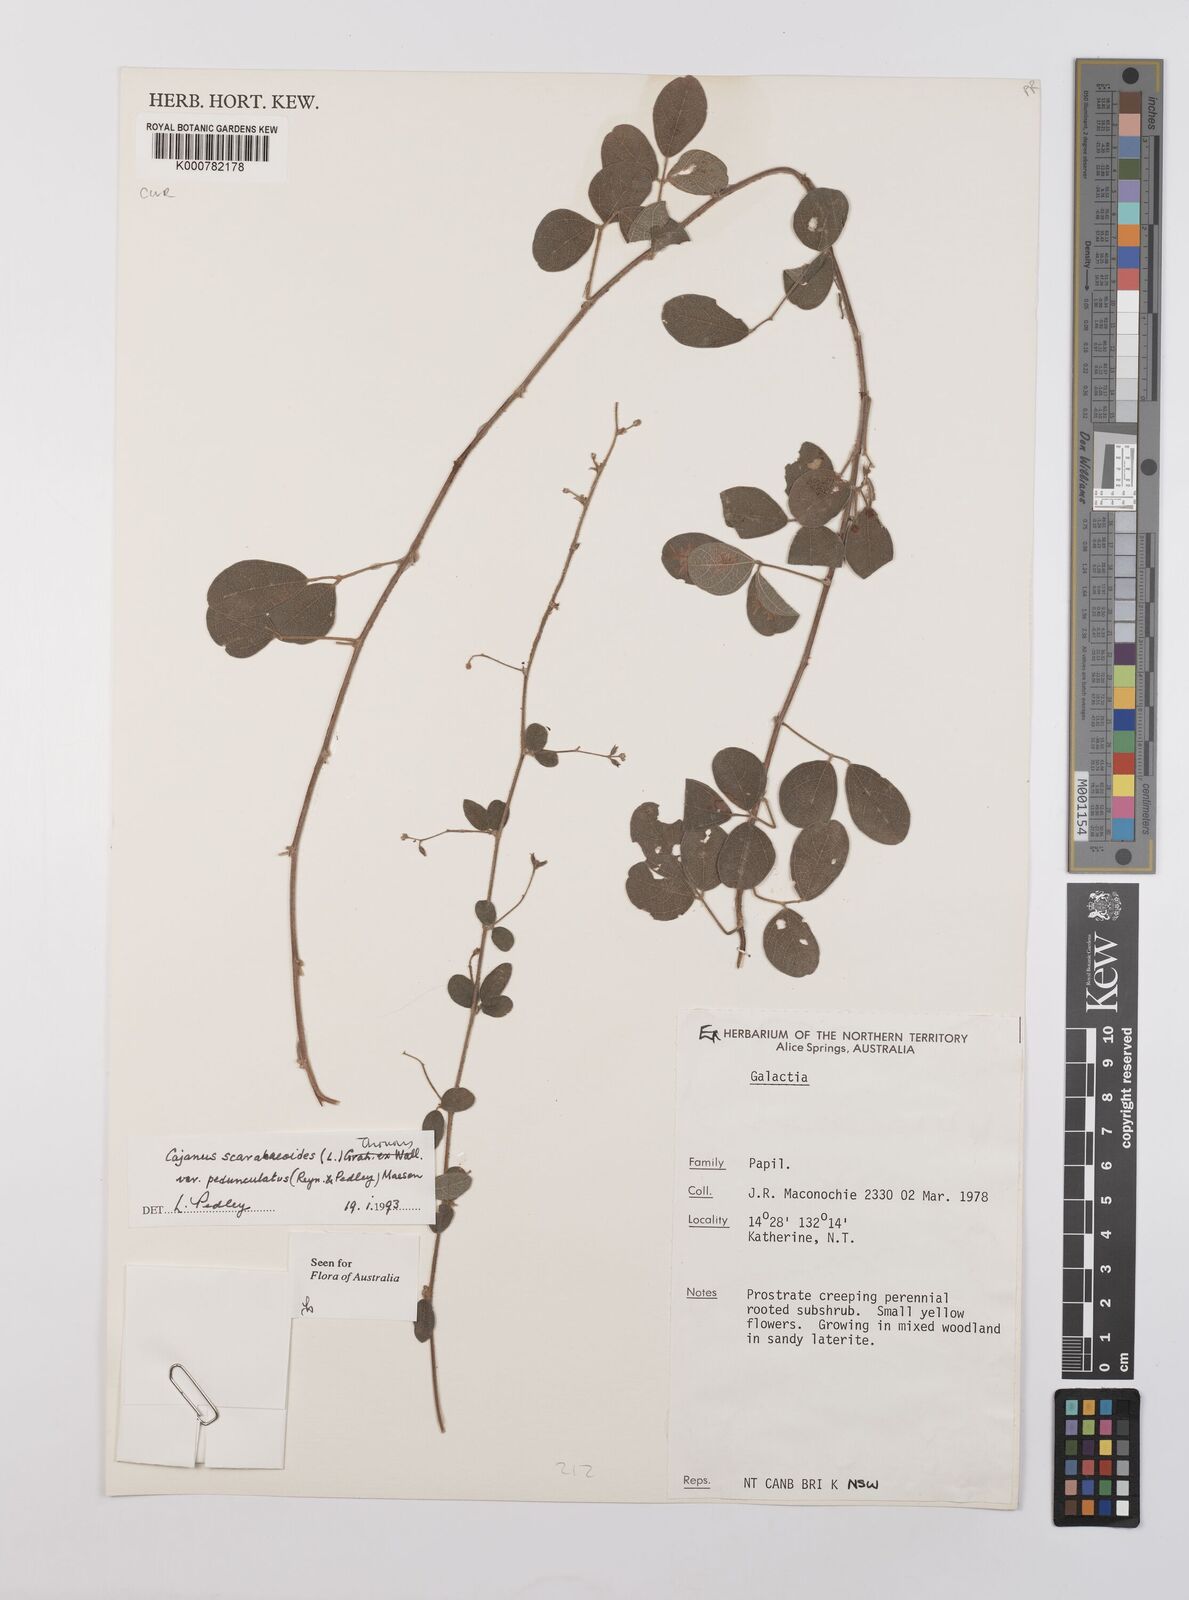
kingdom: Plantae
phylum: Tracheophyta
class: Magnoliopsida
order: Fabales
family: Fabaceae
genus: Cajanus
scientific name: Cajanus scarabaeoides
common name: Showy pigeonpea
